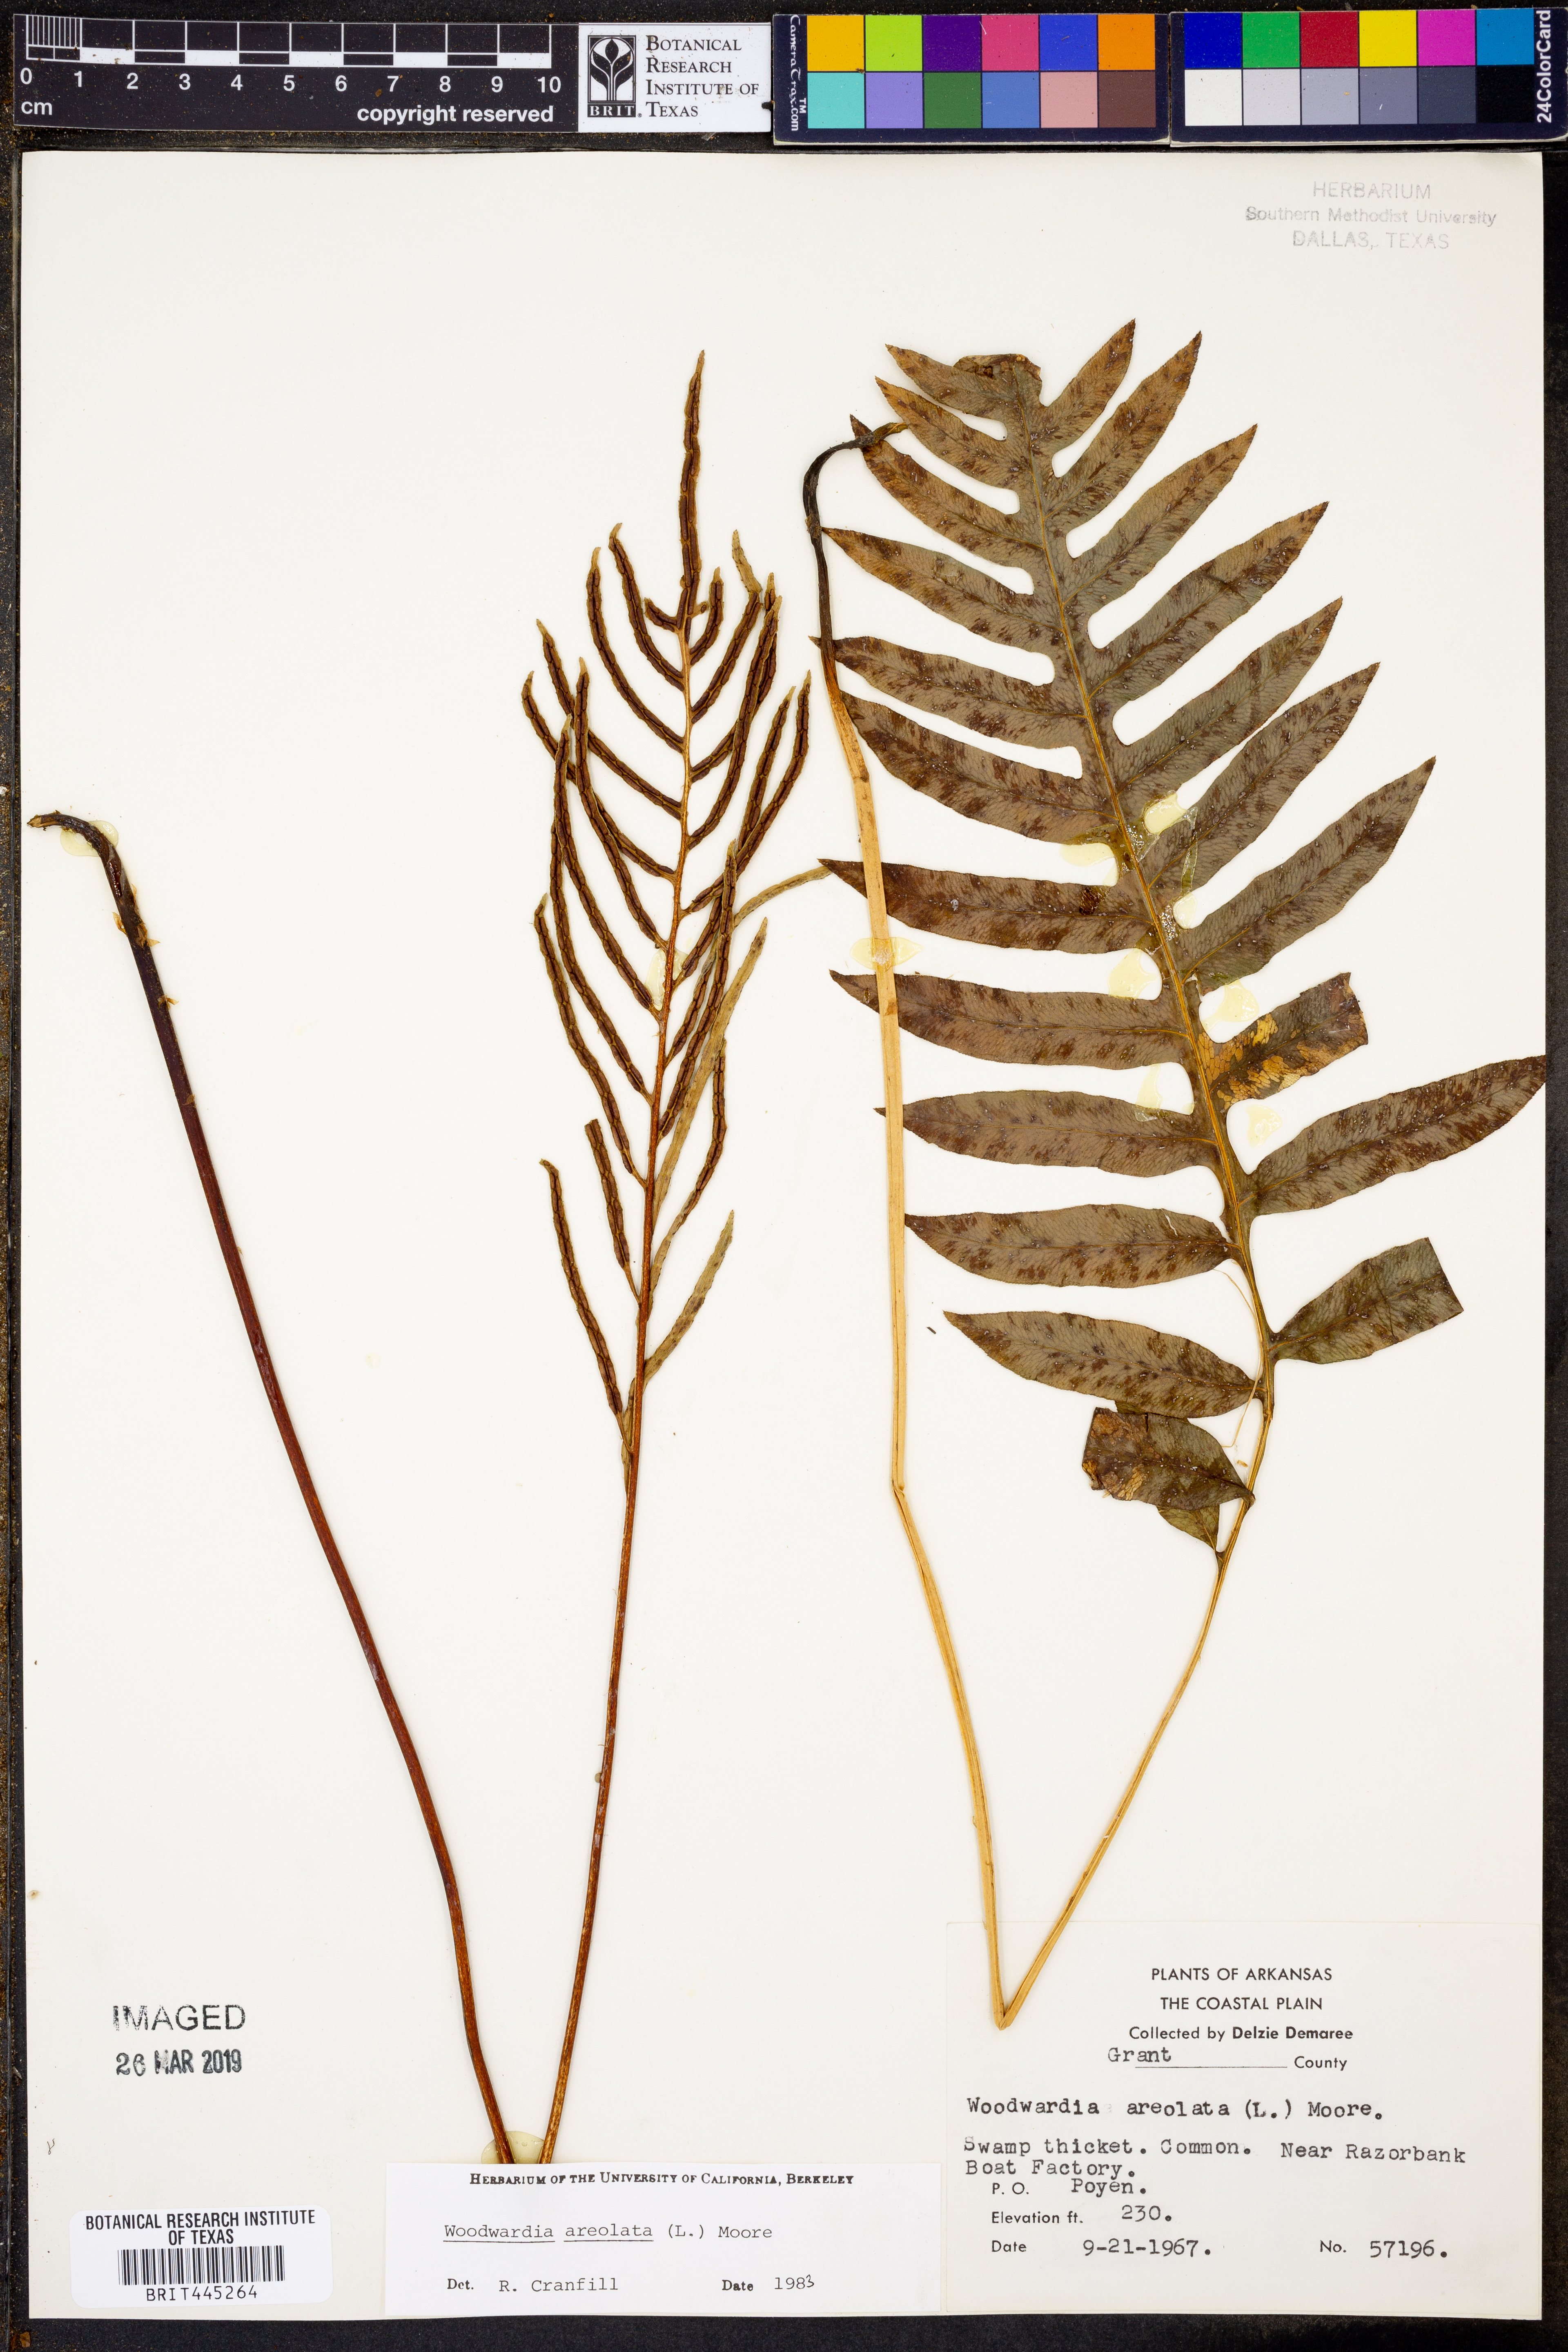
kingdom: Plantae
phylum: Tracheophyta
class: Polypodiopsida
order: Polypodiales
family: Blechnaceae
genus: Lorinseria
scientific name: Lorinseria areolata
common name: Dwarf chain fern
